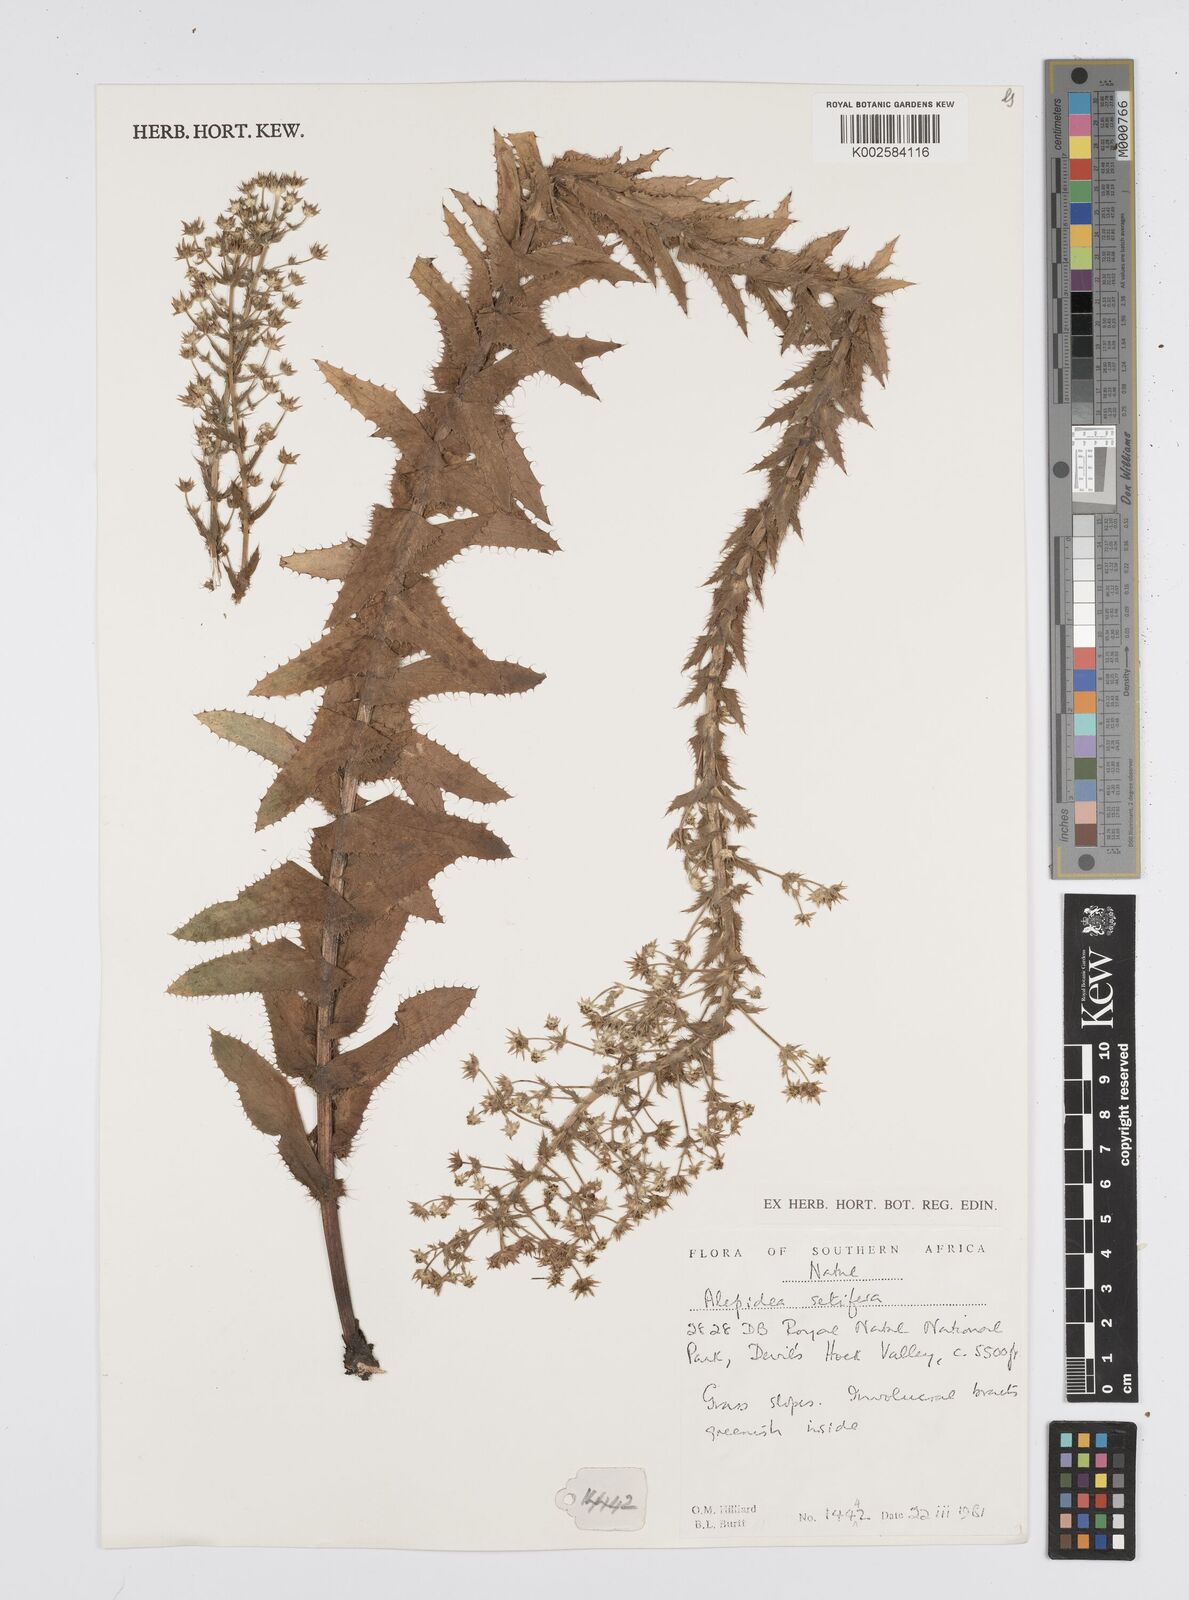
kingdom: Plantae
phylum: Tracheophyta
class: Magnoliopsida
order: Apiales
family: Apiaceae
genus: Alepidea
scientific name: Alepidea setifera
